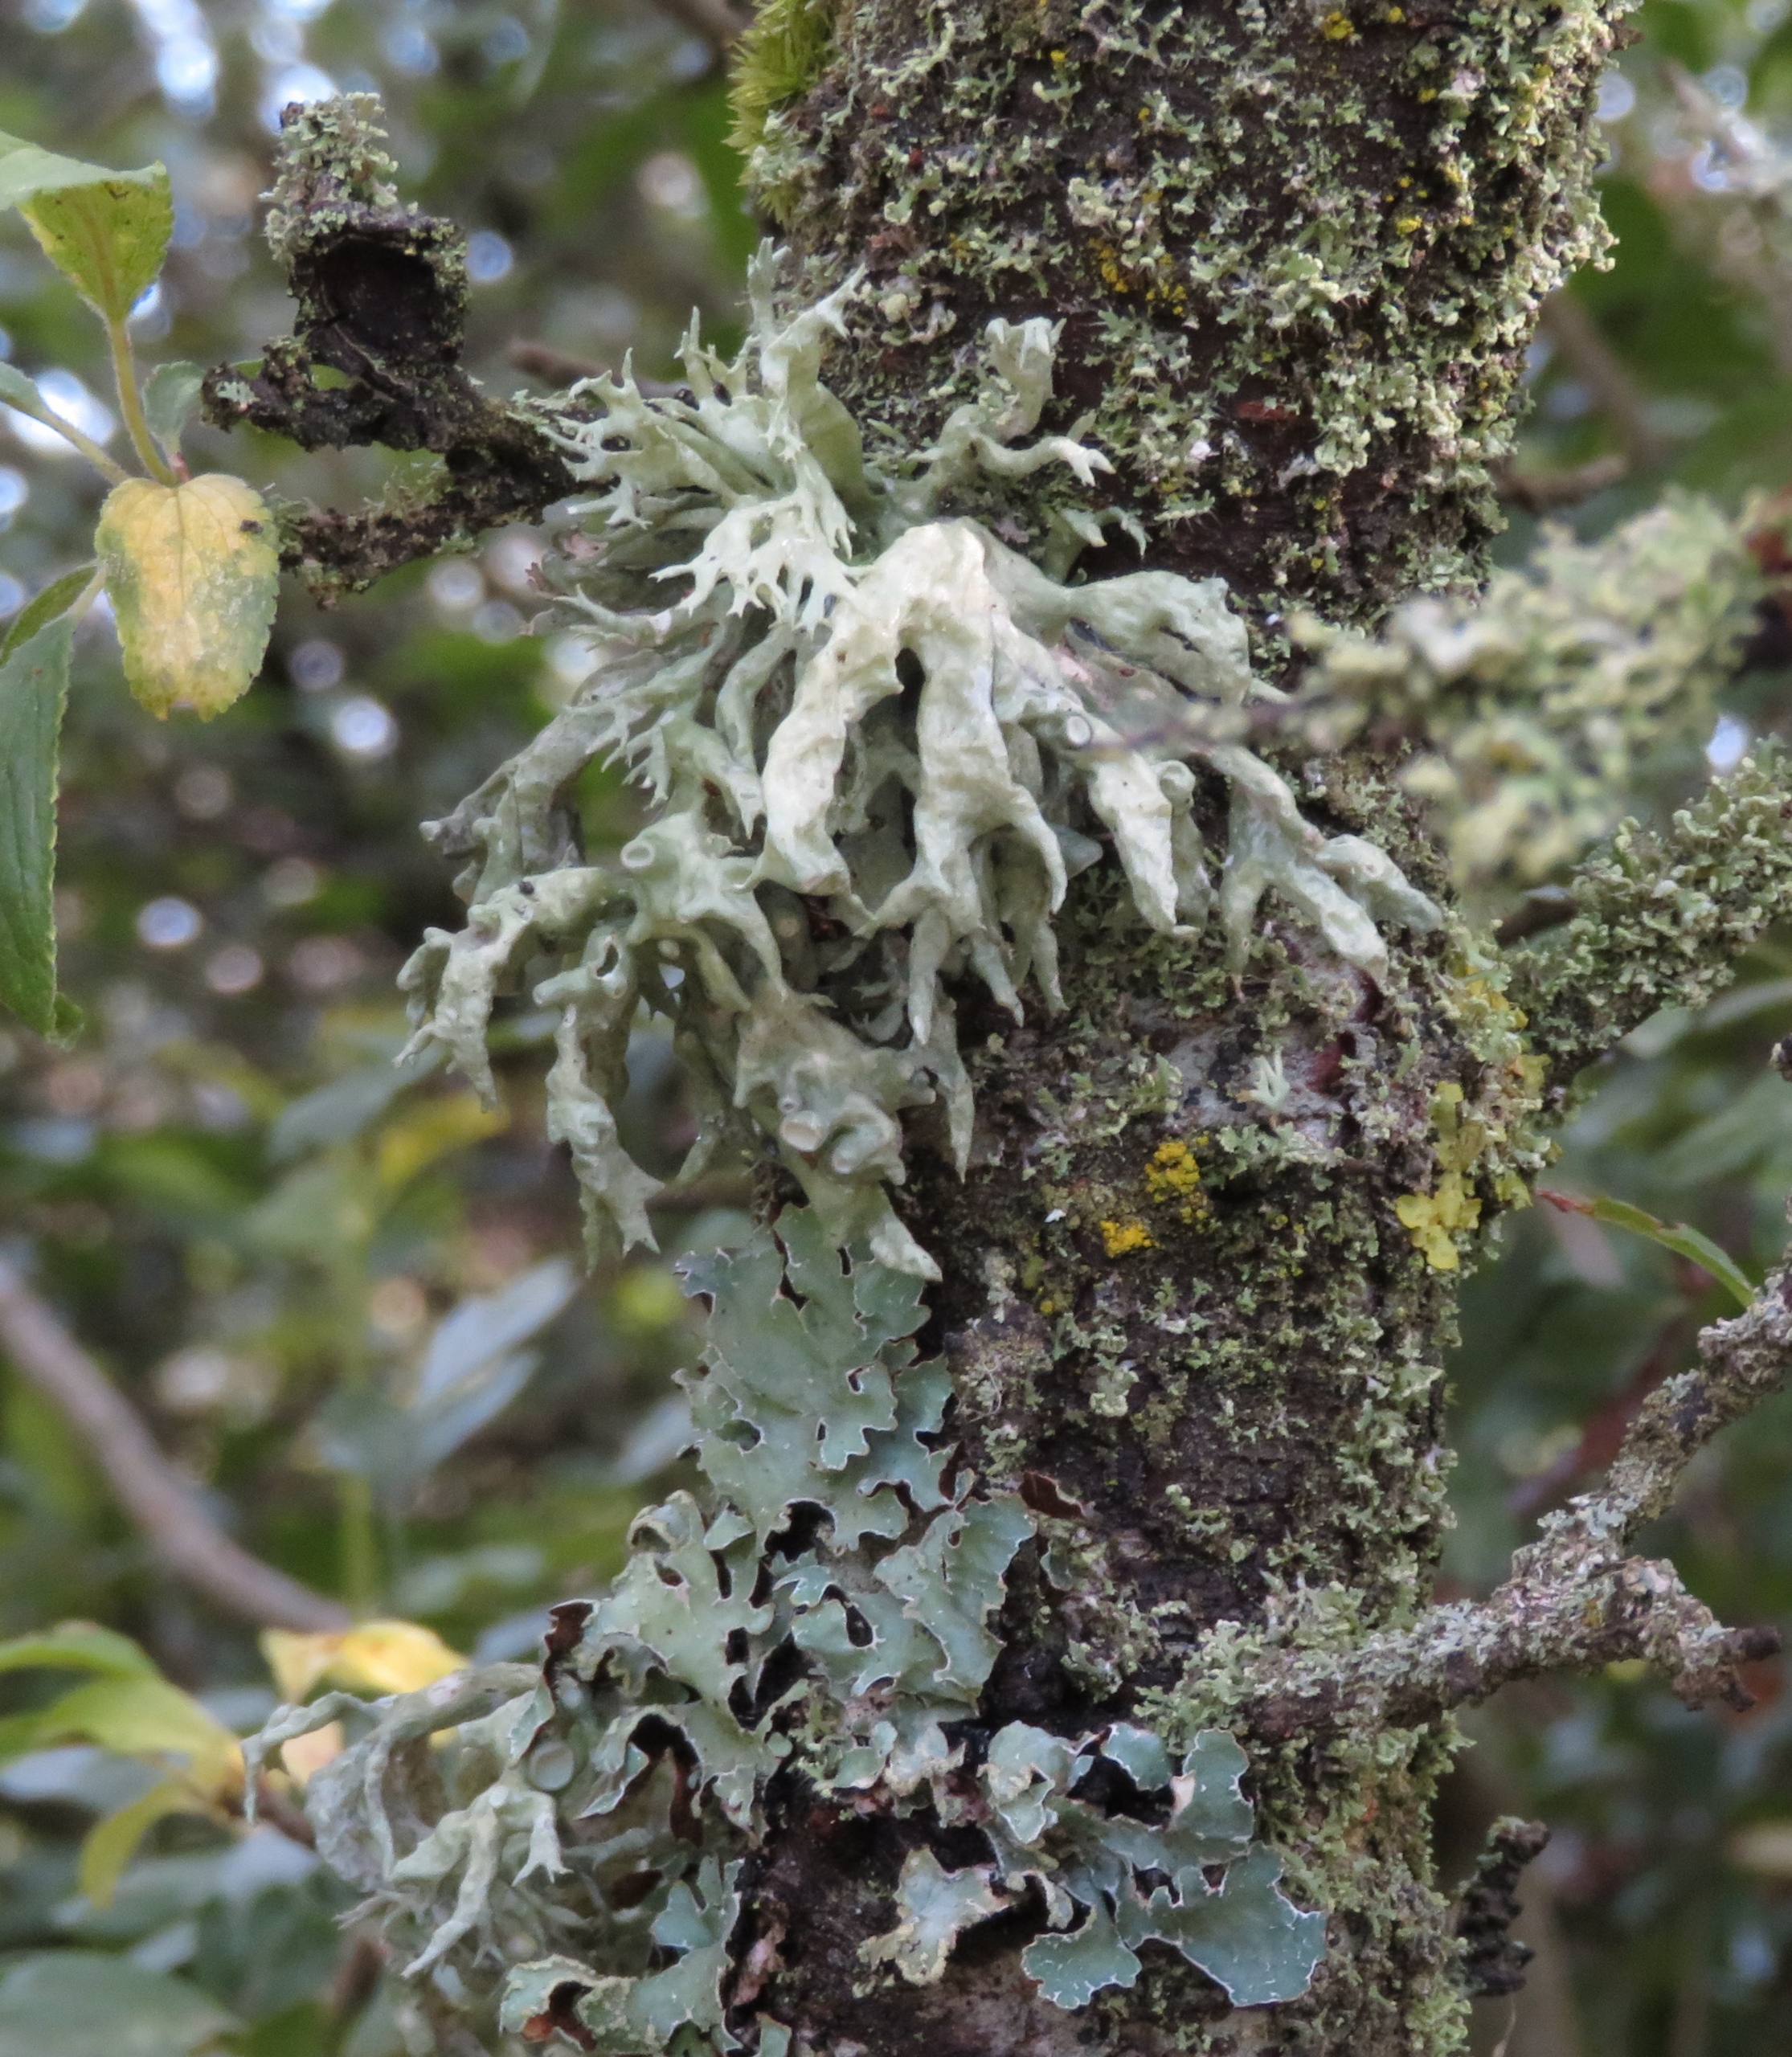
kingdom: Fungi
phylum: Ascomycota
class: Lecanoromycetes
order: Lecanorales
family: Ramalinaceae
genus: Ramalina
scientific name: Ramalina fastigiata
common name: Tue-grenlav
